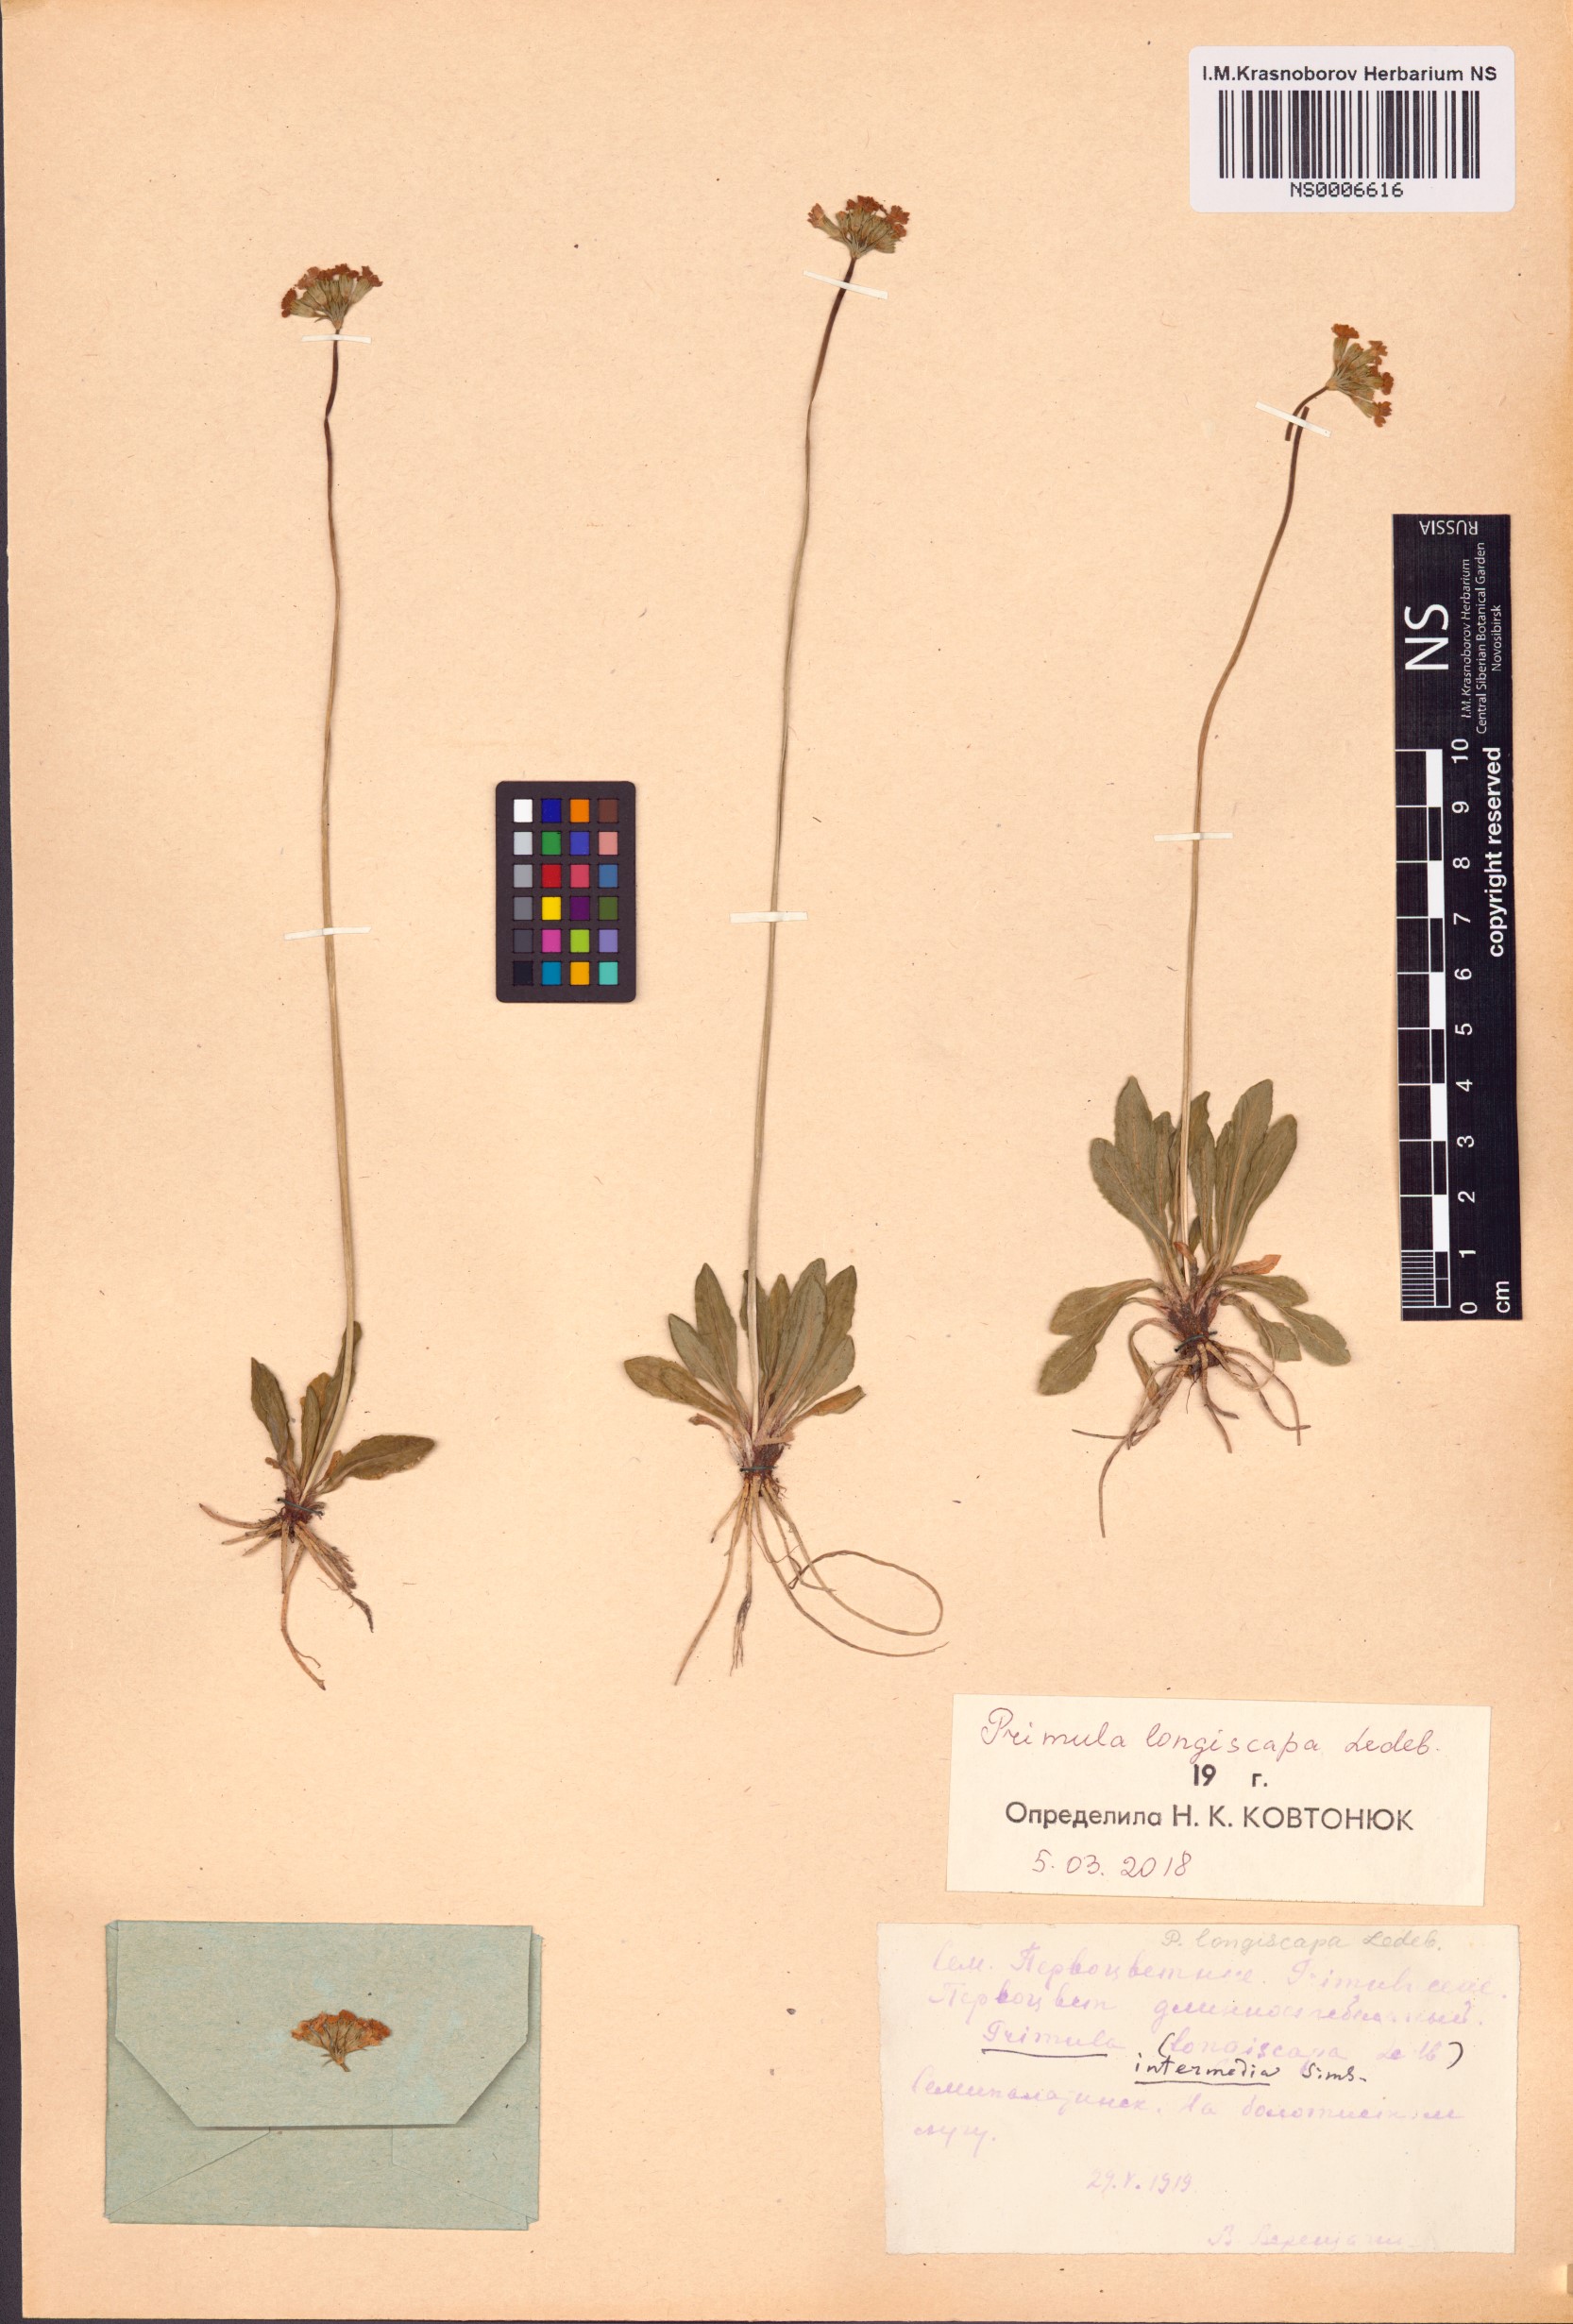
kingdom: Plantae
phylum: Tracheophyta
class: Magnoliopsida
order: Ericales
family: Primulaceae
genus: Primula
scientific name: Primula longiscapa
